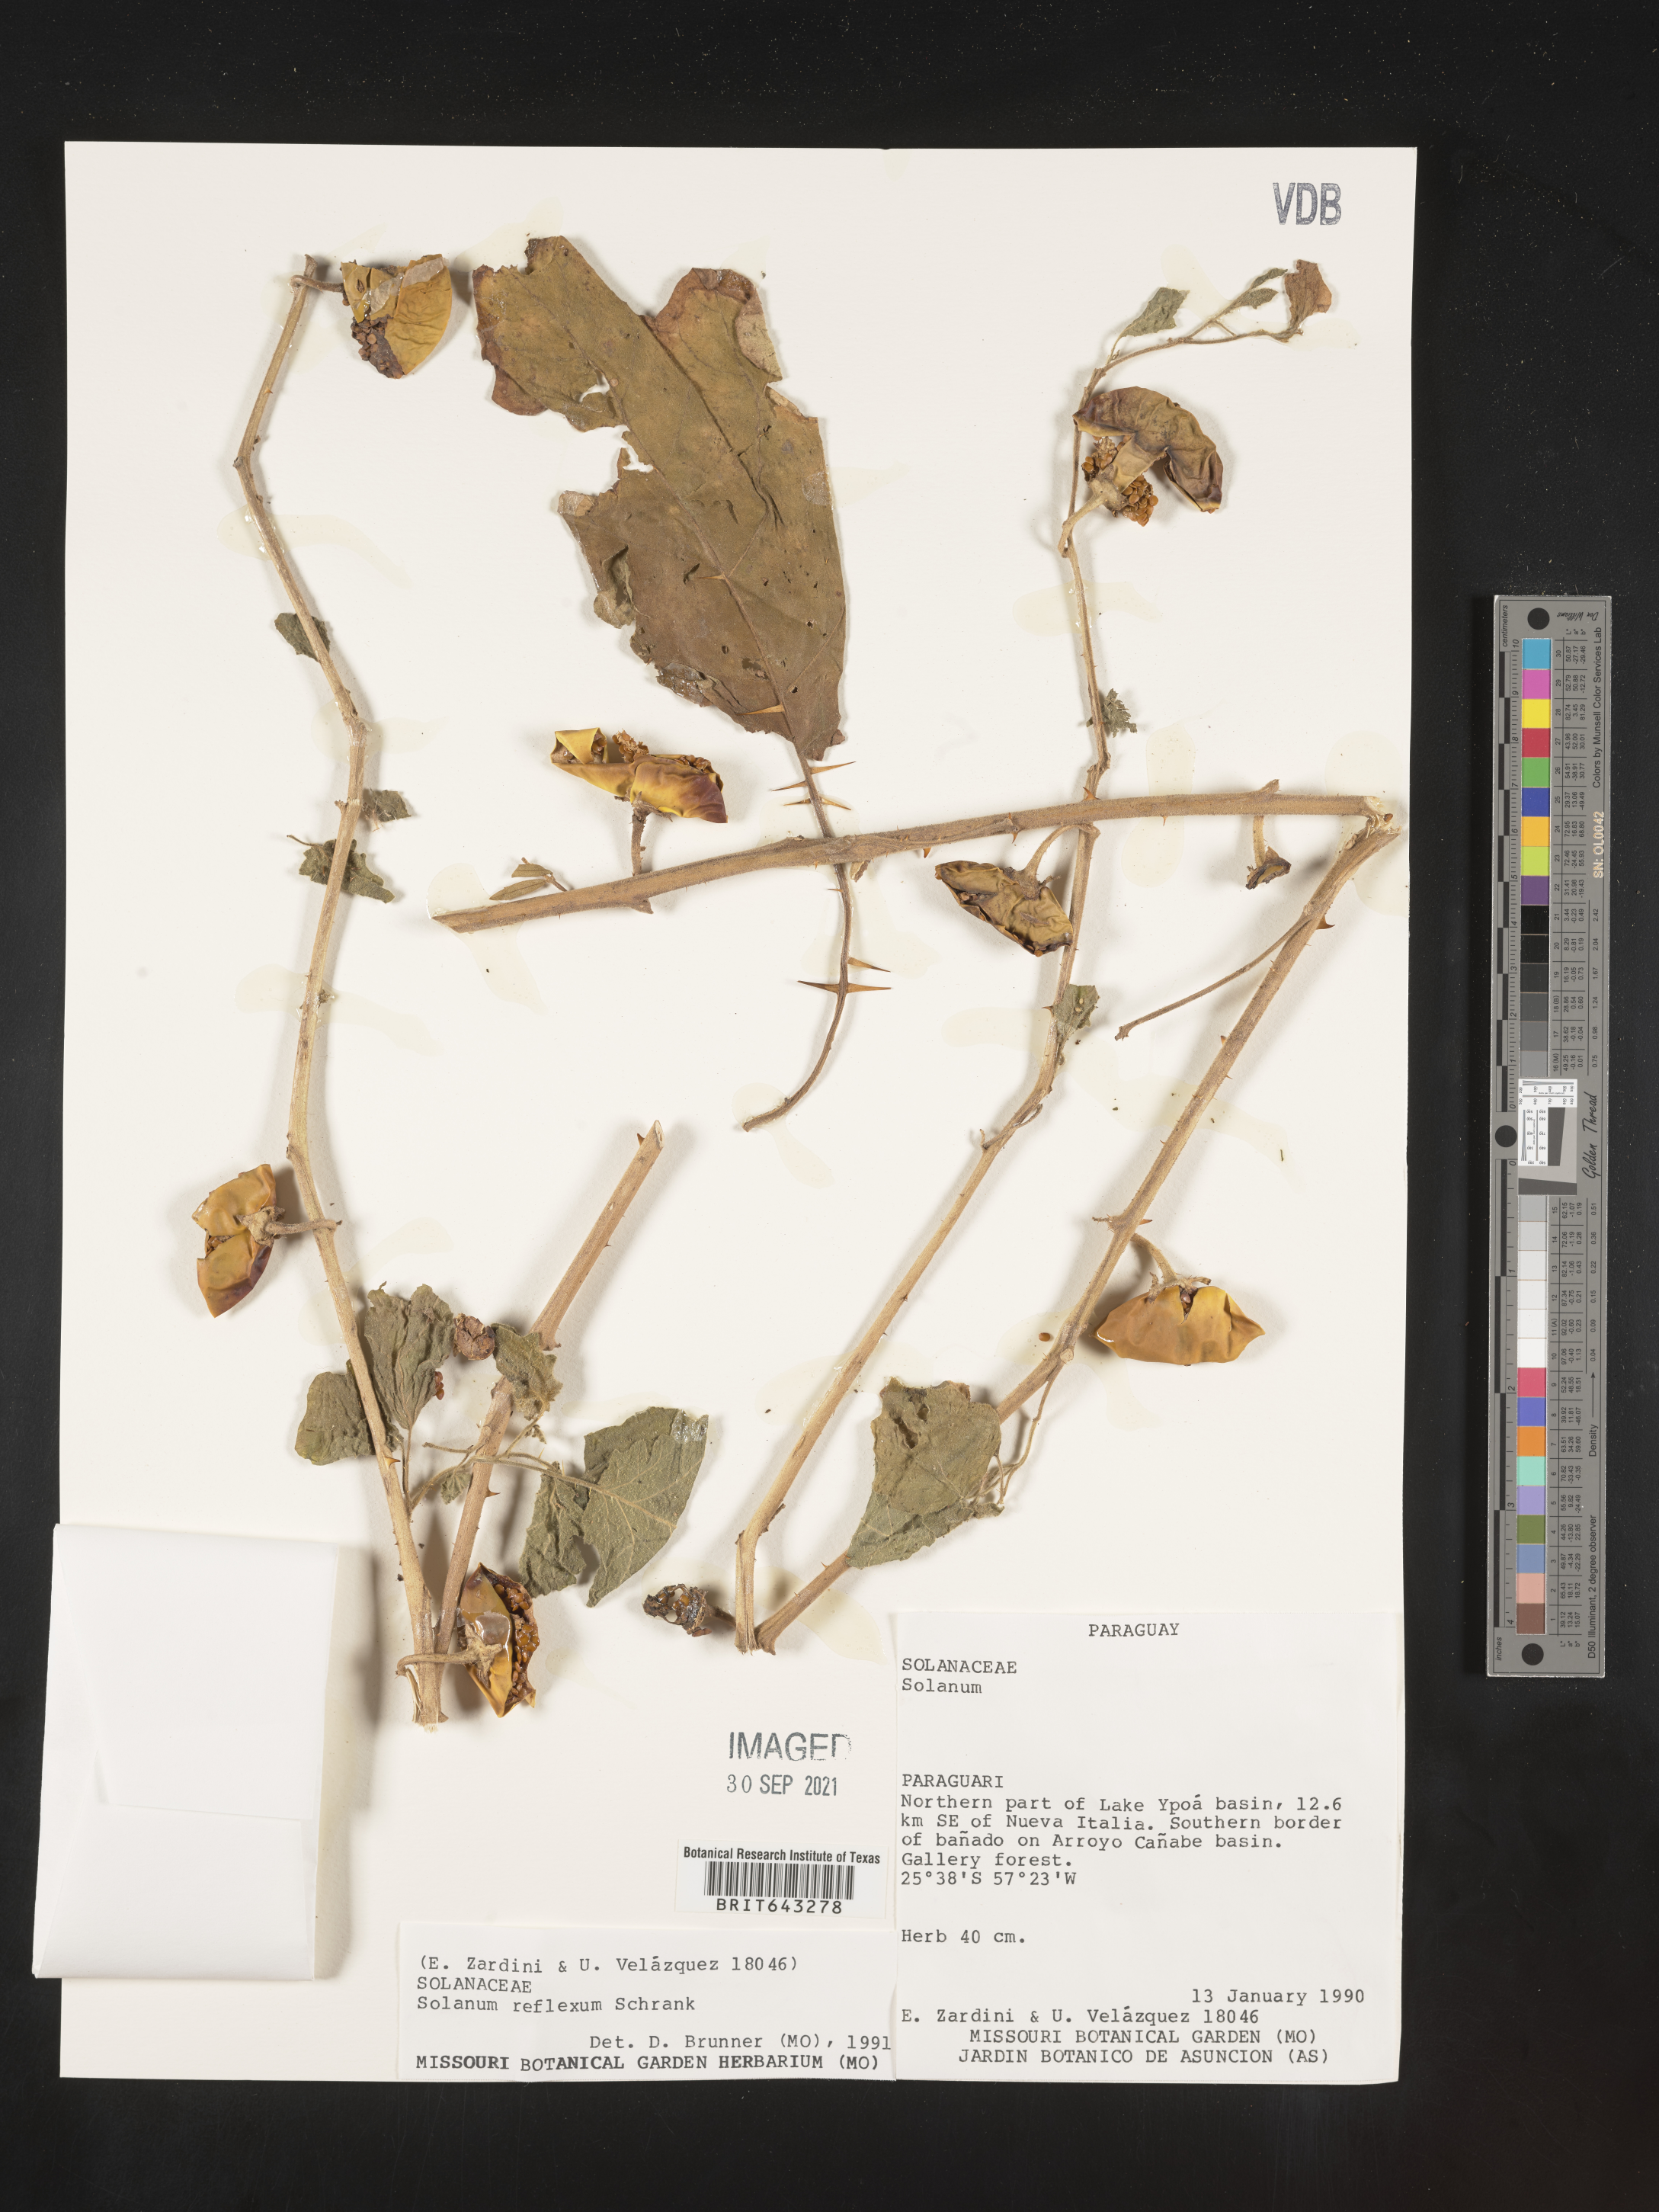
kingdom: Plantae
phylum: Tracheophyta
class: Magnoliopsida
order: Solanales
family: Solanaceae
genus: Solanum
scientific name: Solanum
